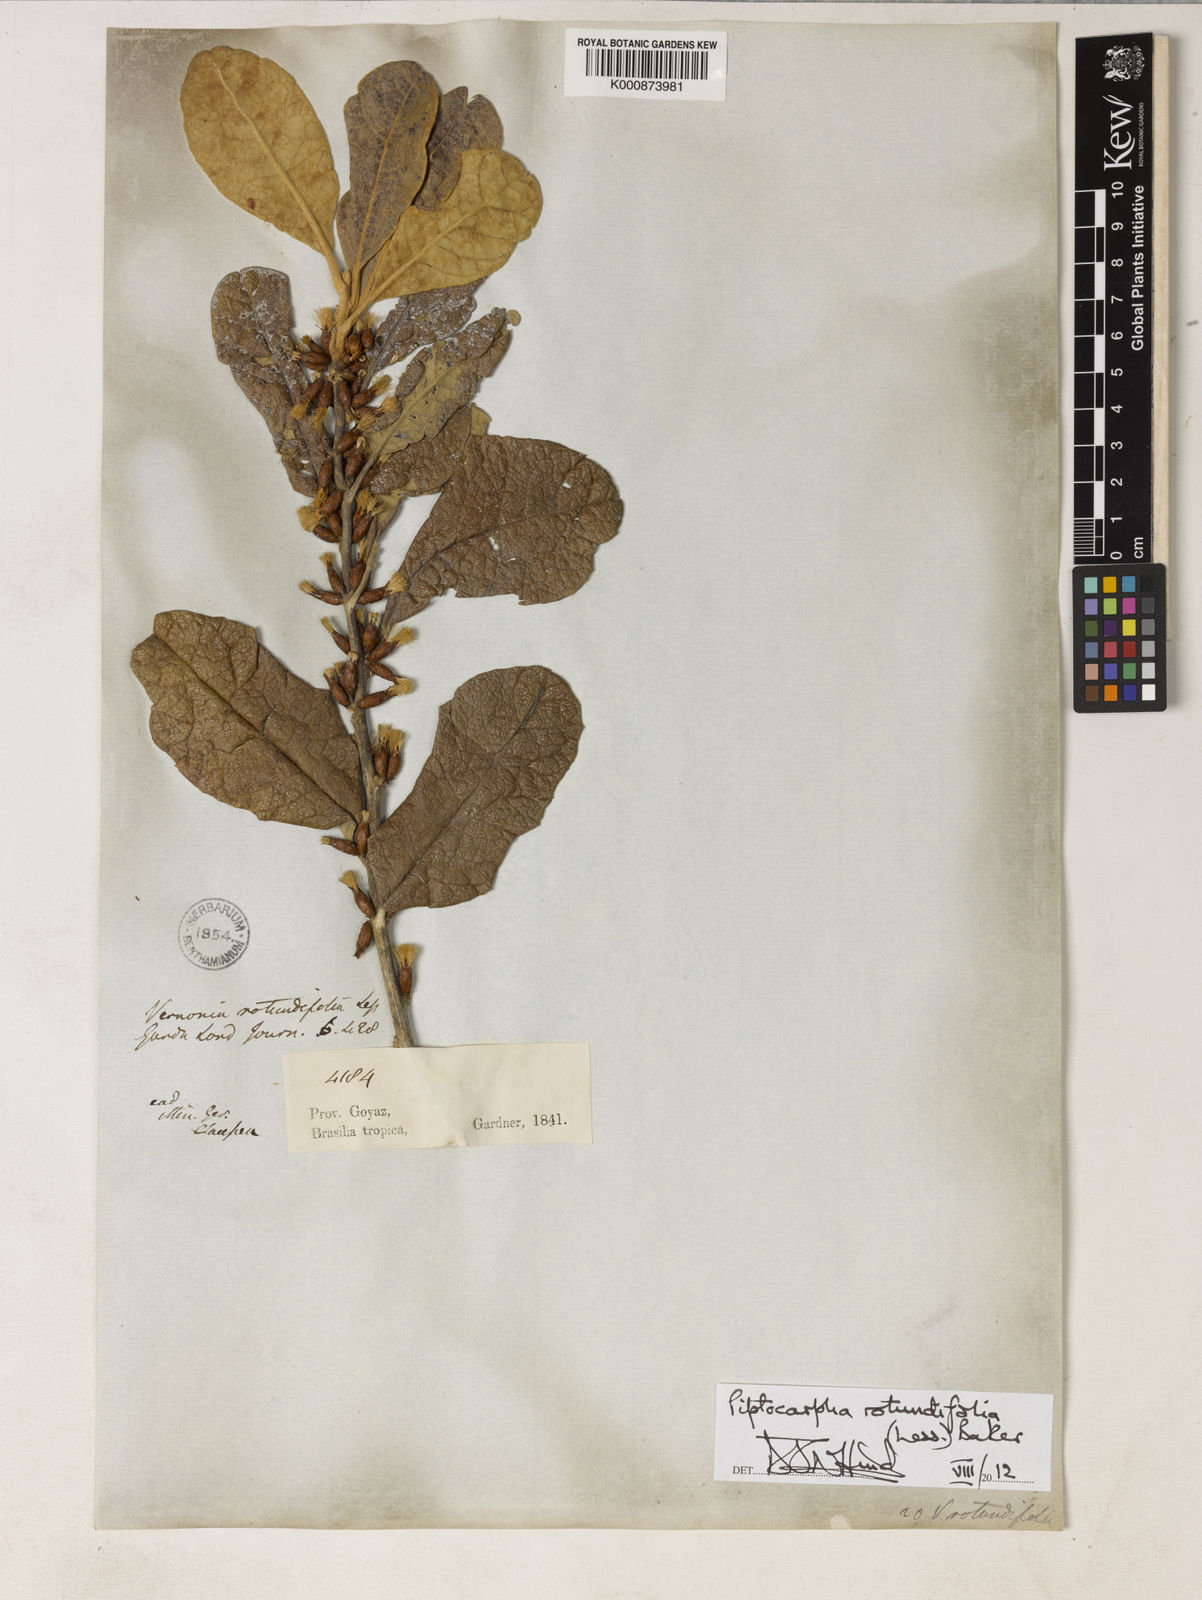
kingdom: Plantae
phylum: Tracheophyta
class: Magnoliopsida
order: Asterales
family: Asteraceae
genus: Piptocarpha
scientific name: Piptocarpha rotundifolia
